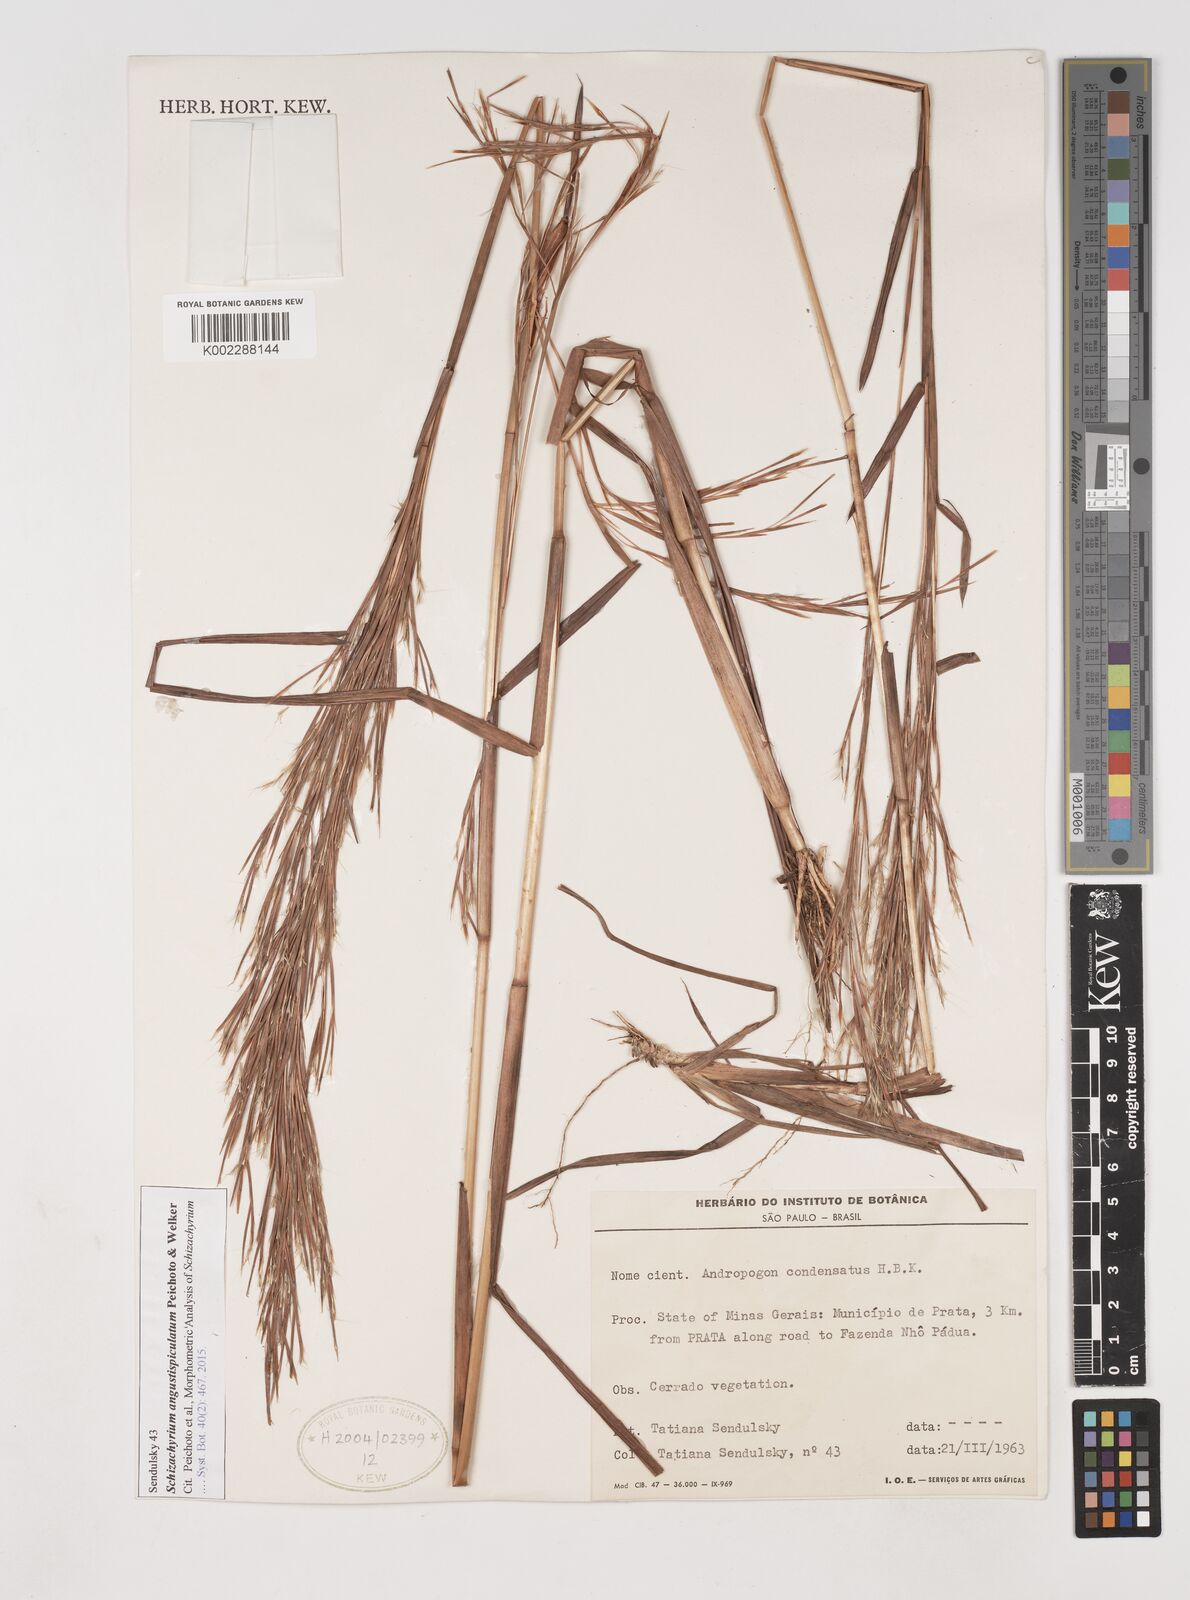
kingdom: Plantae
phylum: Tracheophyta
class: Liliopsida
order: Poales
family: Poaceae
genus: Schizachyrium
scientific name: Schizachyrium angustispiculatum
